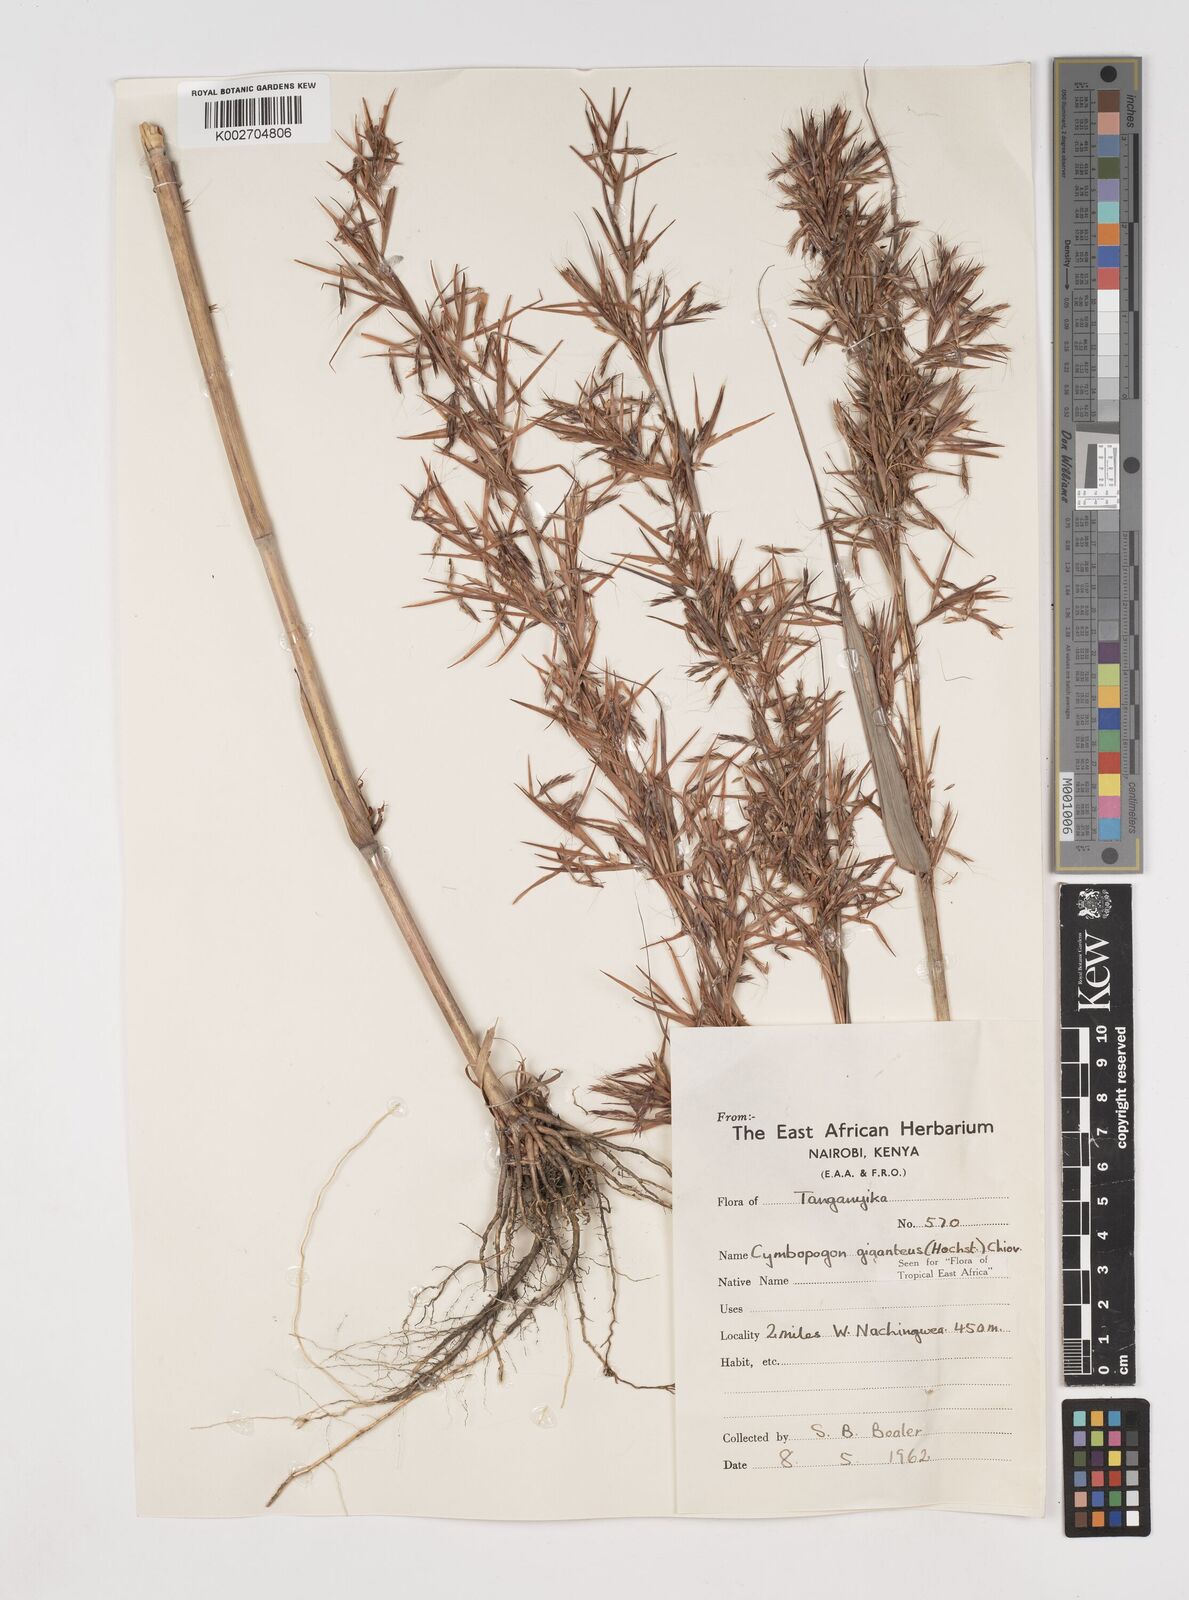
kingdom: Plantae
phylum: Tracheophyta
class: Liliopsida
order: Poales
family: Poaceae
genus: Cymbopogon
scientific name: Cymbopogon giganteus
